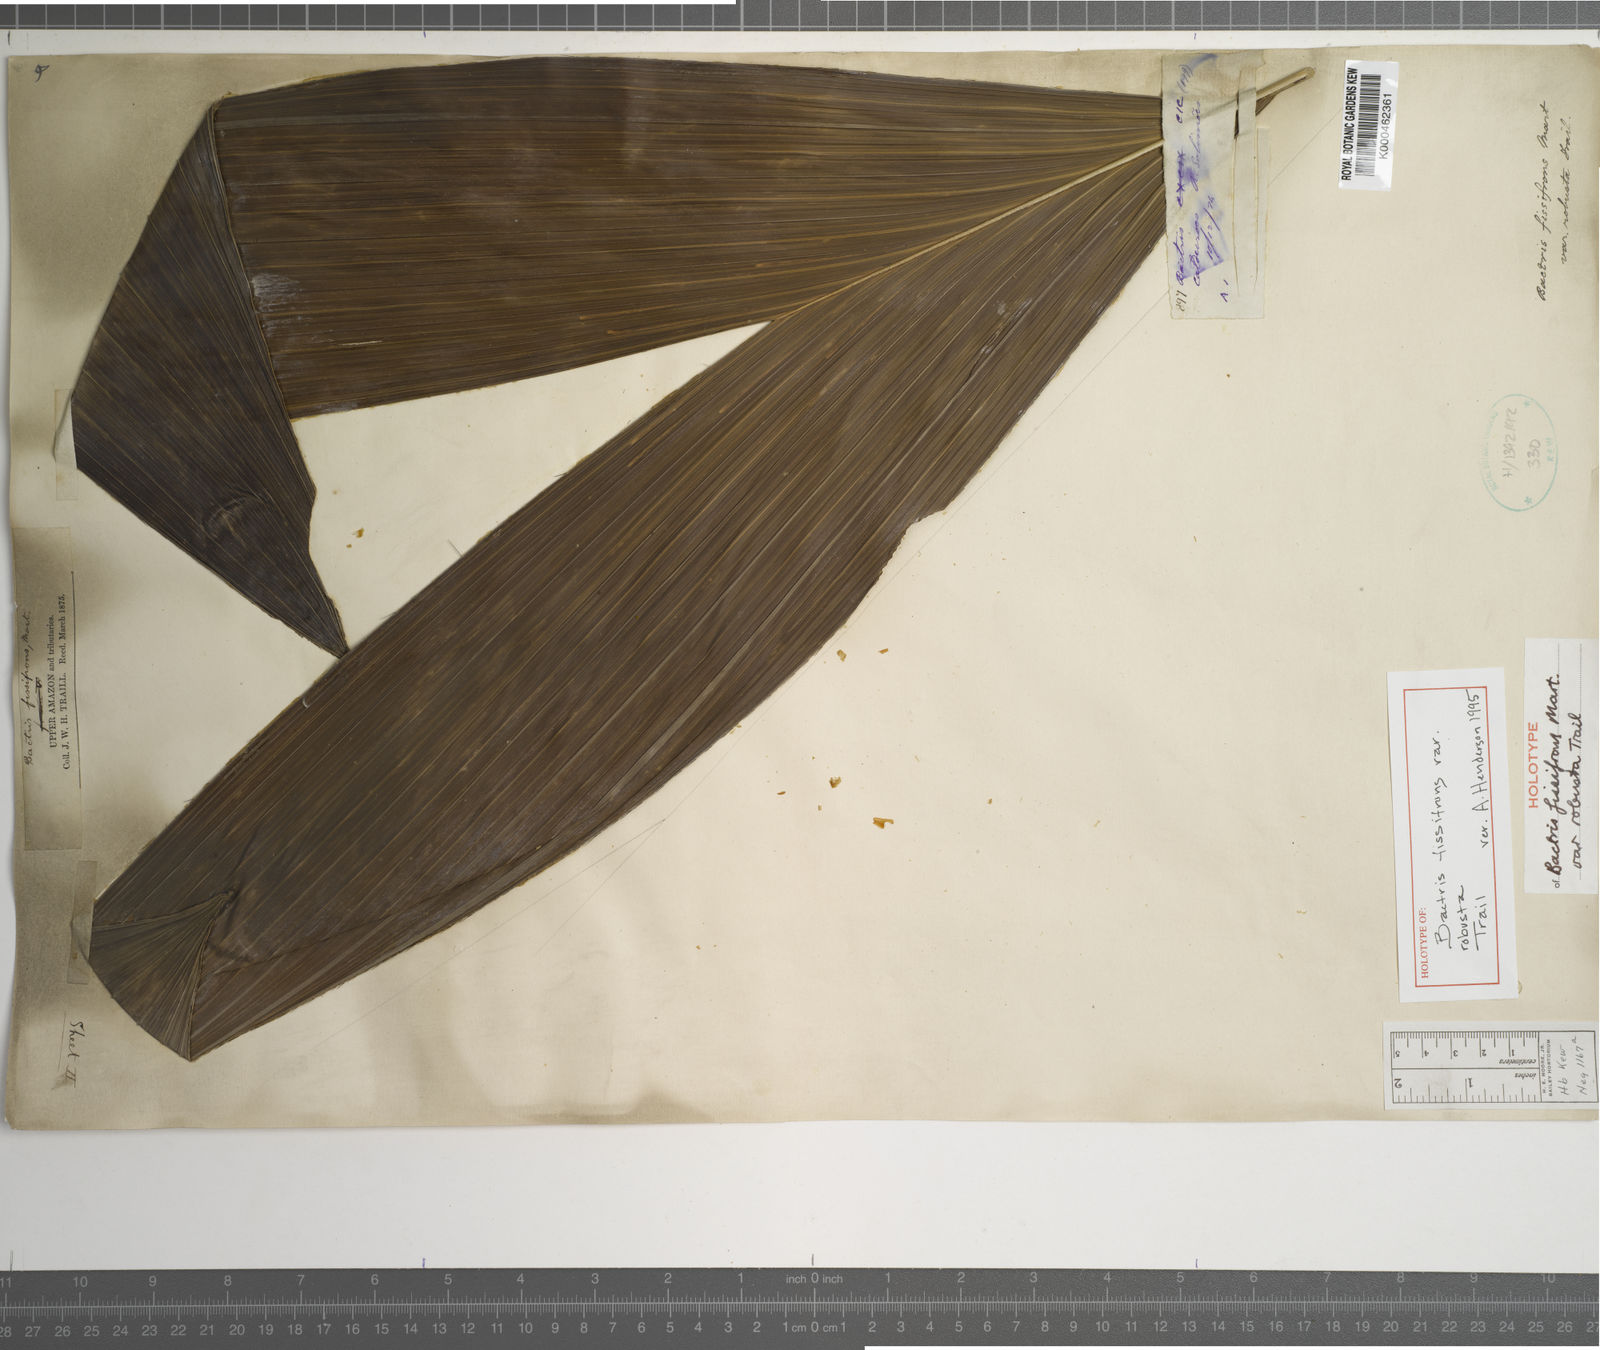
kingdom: Plantae
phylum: Tracheophyta
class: Liliopsida
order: Arecales
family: Arecaceae
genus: Bactris
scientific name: Bactris fissifrons
